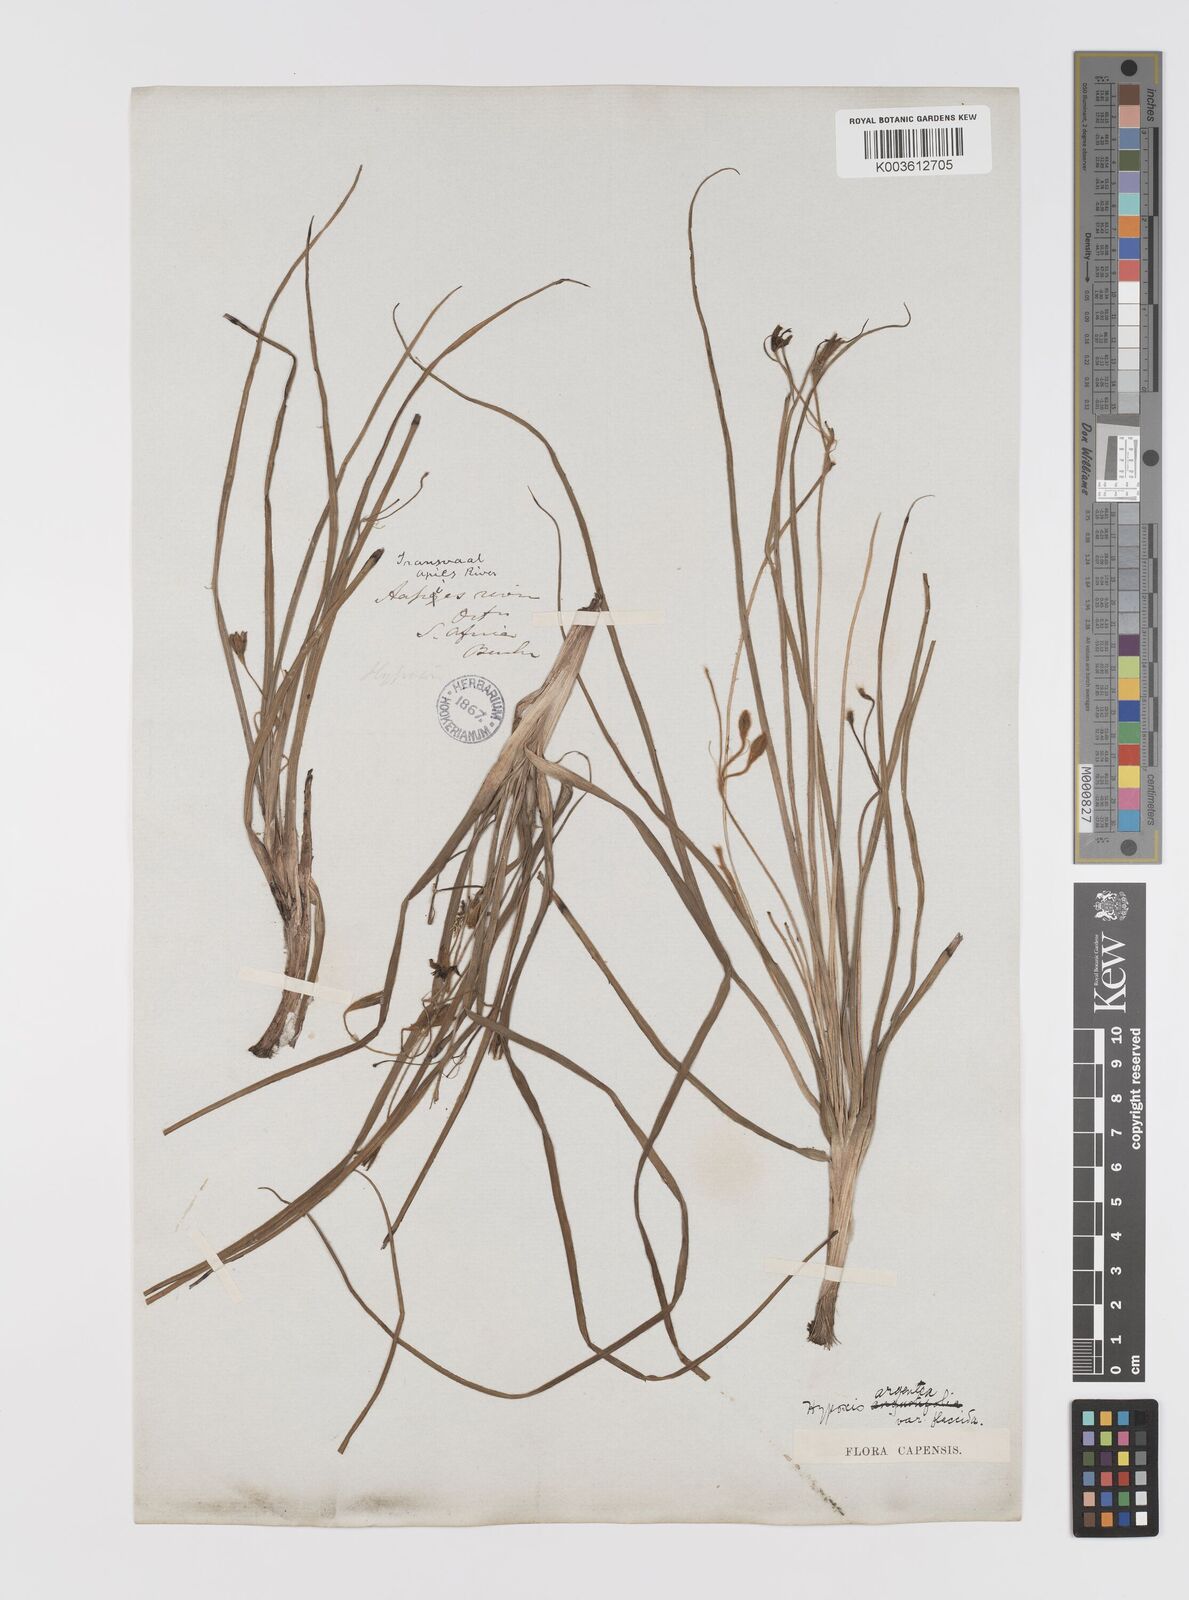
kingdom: Plantae
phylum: Tracheophyta
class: Liliopsida
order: Asparagales
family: Hypoxidaceae
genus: Hypoxis
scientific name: Hypoxis argentea
